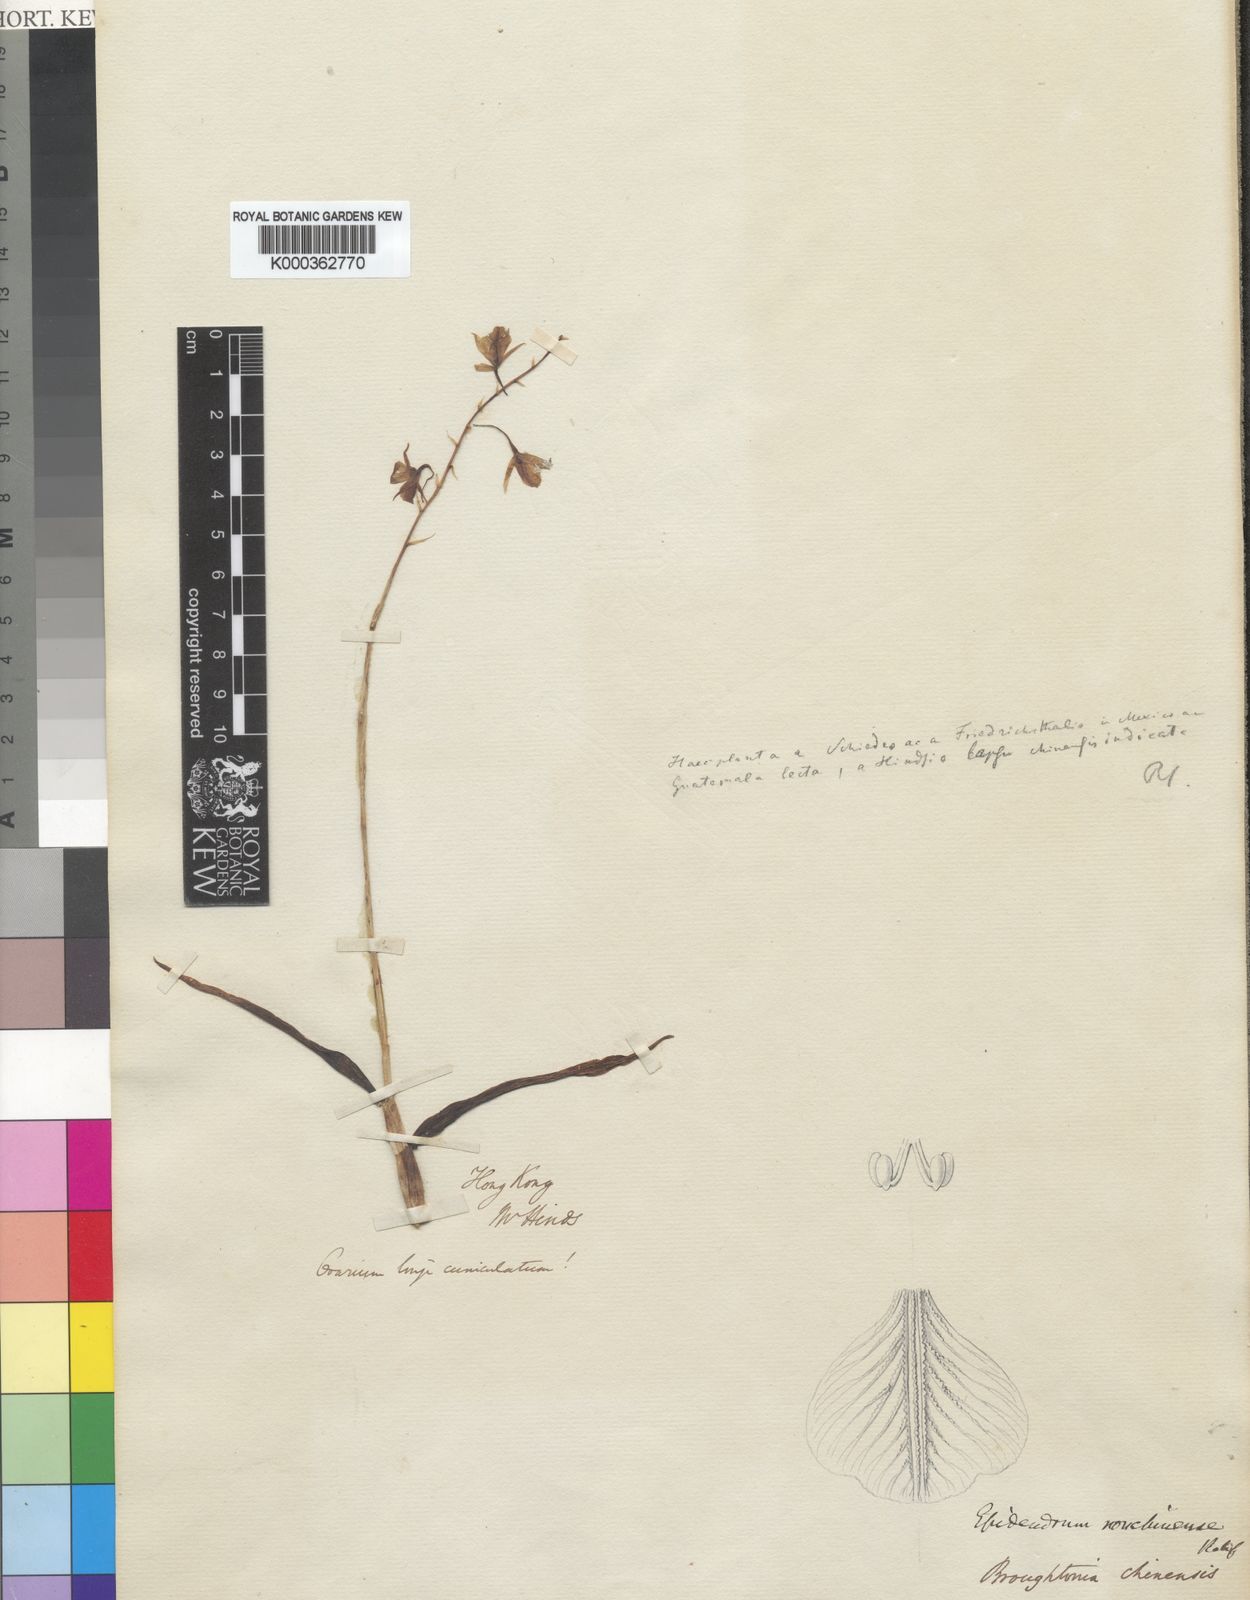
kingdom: Plantae
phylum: Tracheophyta
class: Liliopsida
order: Asparagales
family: Orchidaceae
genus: Barkeria
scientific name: Barkeria obovata
